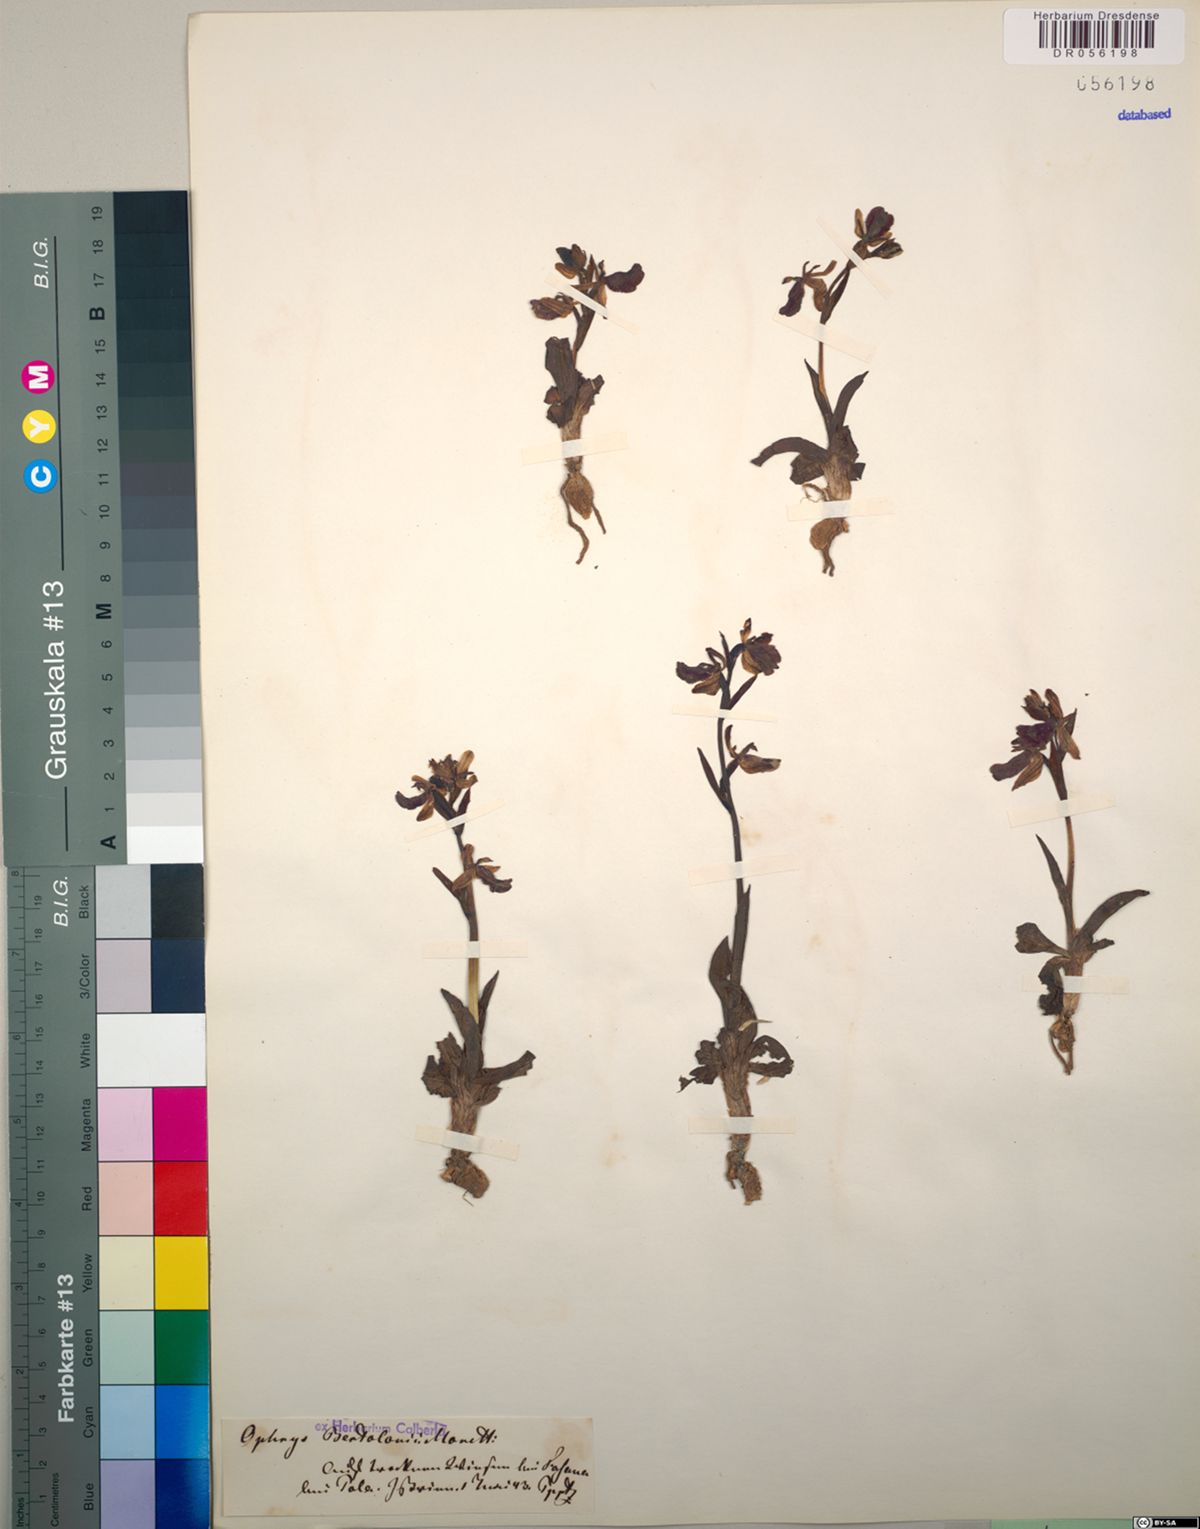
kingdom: Plantae
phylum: Tracheophyta
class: Liliopsida
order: Asparagales
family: Orchidaceae
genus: Ophrys
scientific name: Ophrys bertolonii
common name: Bertoloni's bee orchid
